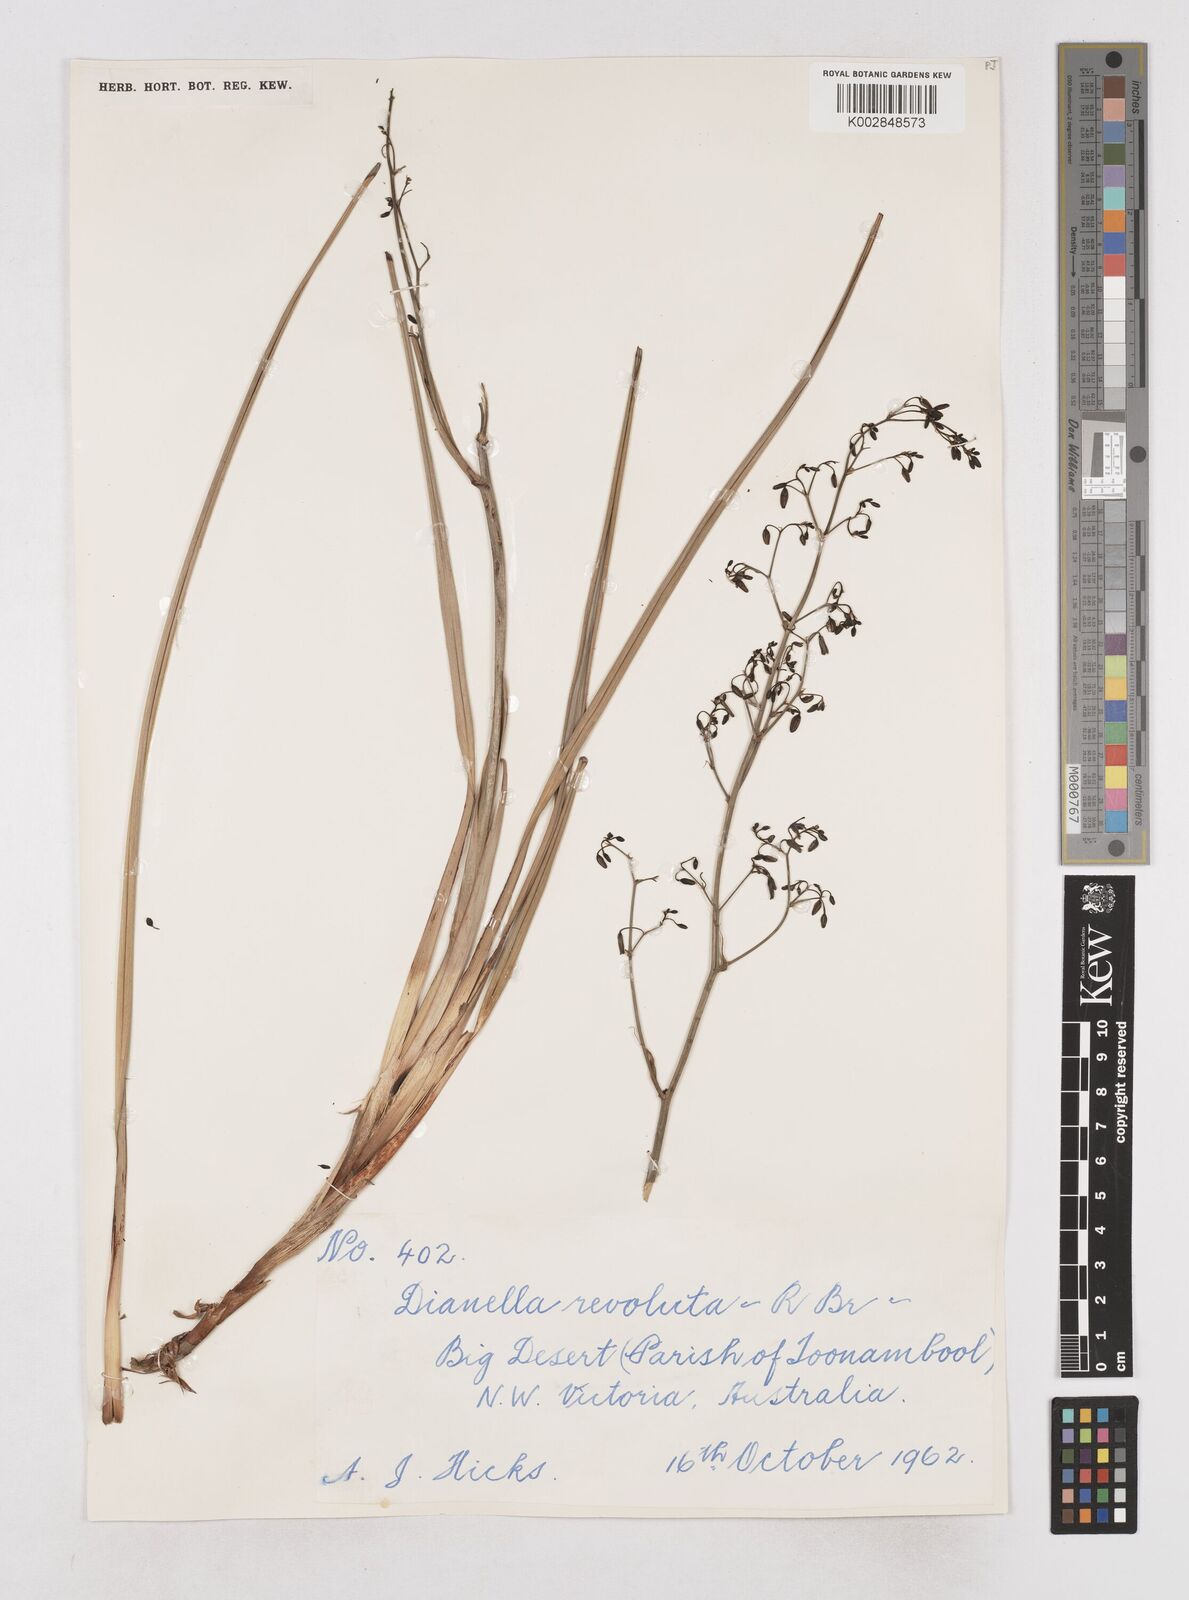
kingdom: Plantae
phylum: Tracheophyta
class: Liliopsida
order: Asparagales
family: Asphodelaceae
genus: Dianella
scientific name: Dianella revoluta
